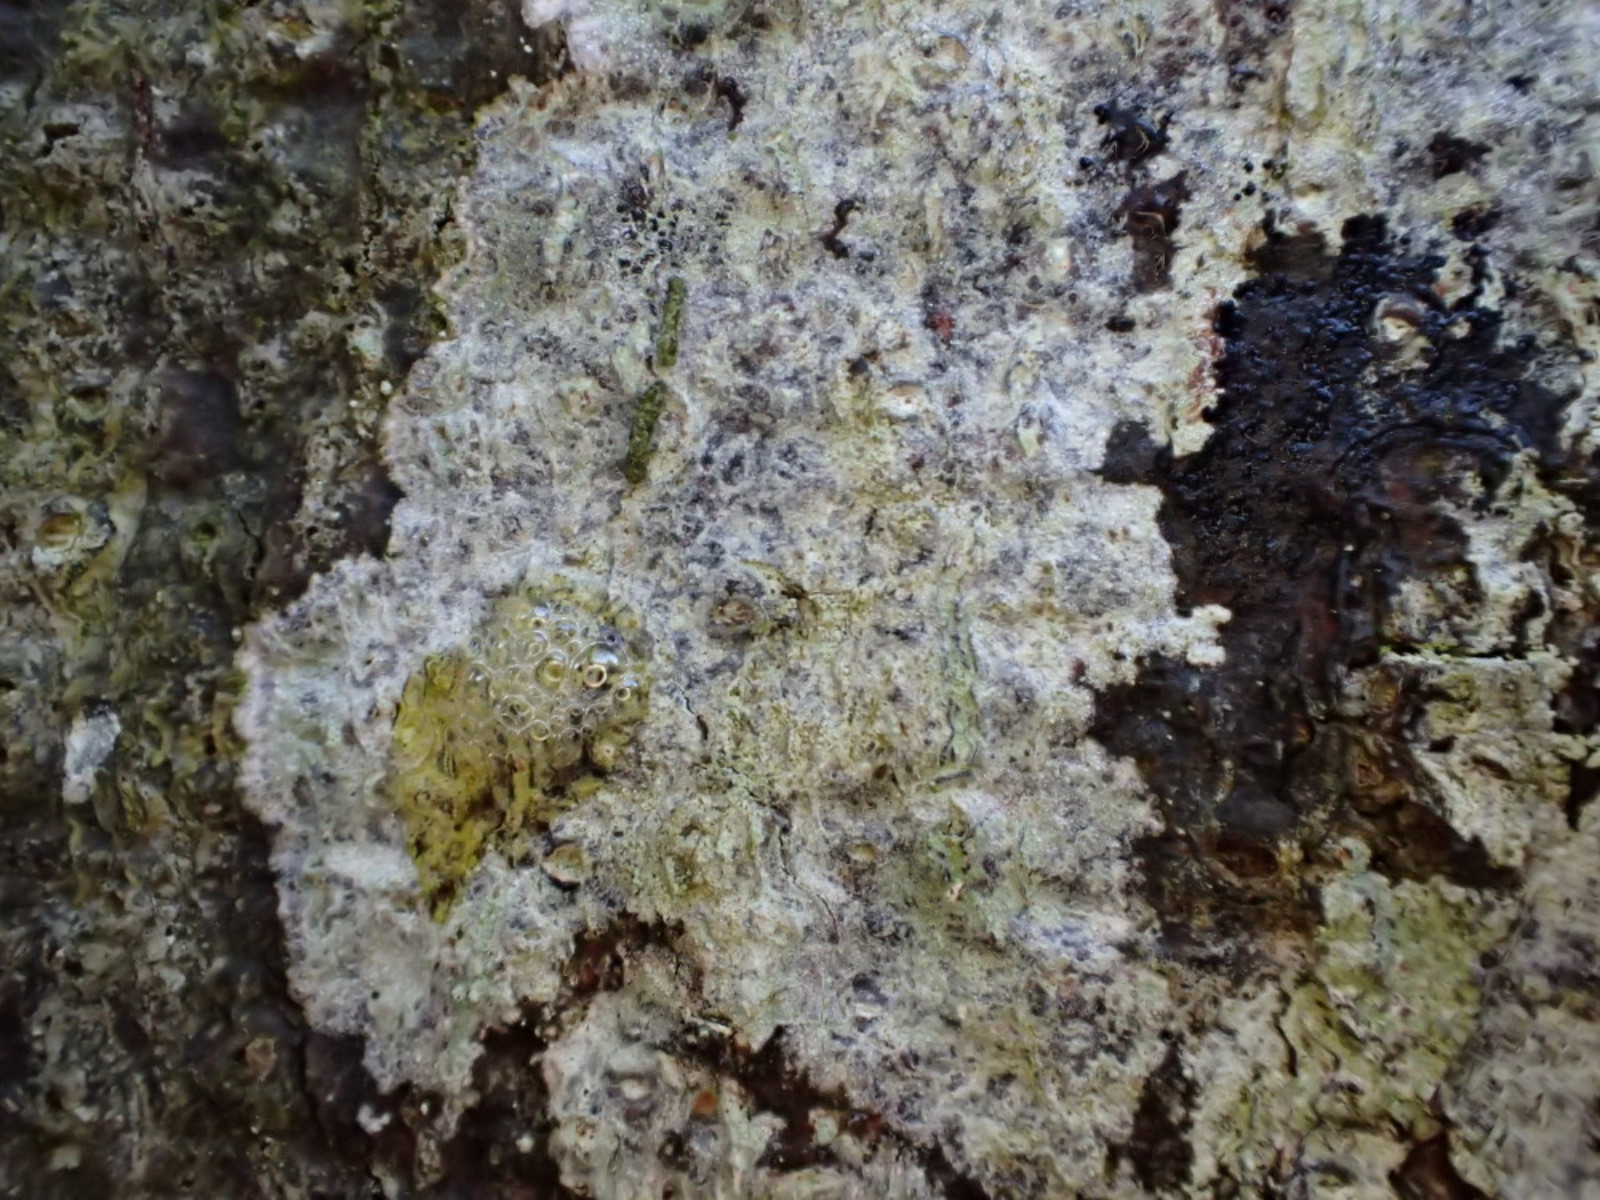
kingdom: Fungi
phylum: Ascomycota
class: Lecanoromycetes
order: Ostropales
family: Phlyctidaceae
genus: Phlyctis
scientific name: Phlyctis argena
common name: almindelig sølvlav
